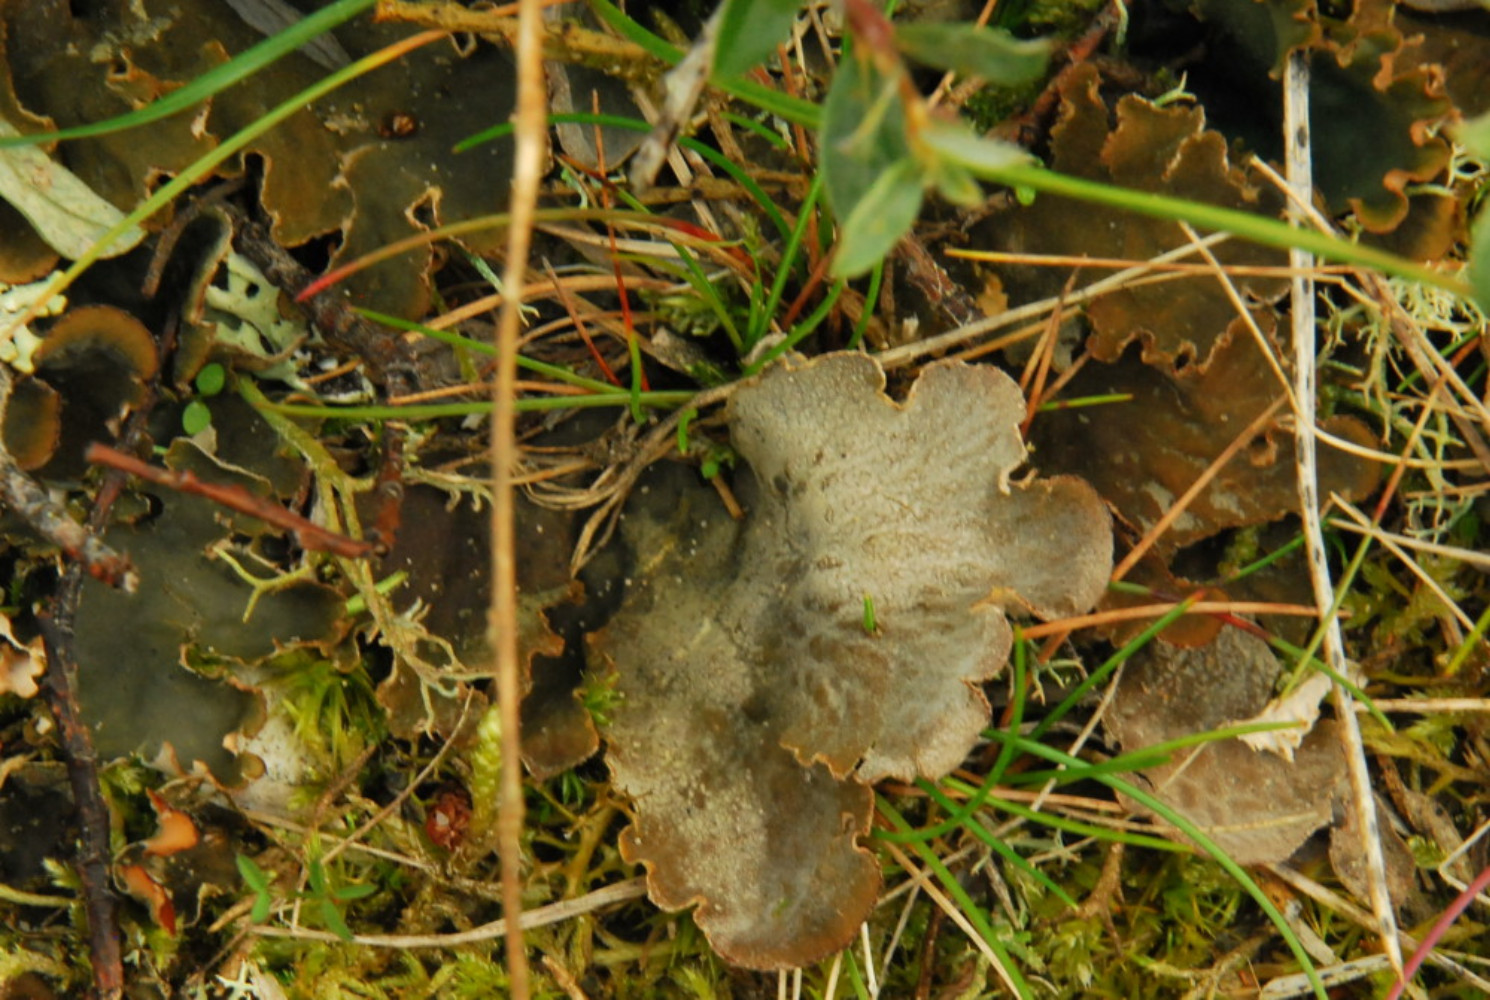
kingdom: Fungi
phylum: Ascomycota
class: Lecanoromycetes
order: Peltigerales
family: Peltigeraceae
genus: Peltigera
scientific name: Peltigera membranacea
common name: tynd skjoldlav
